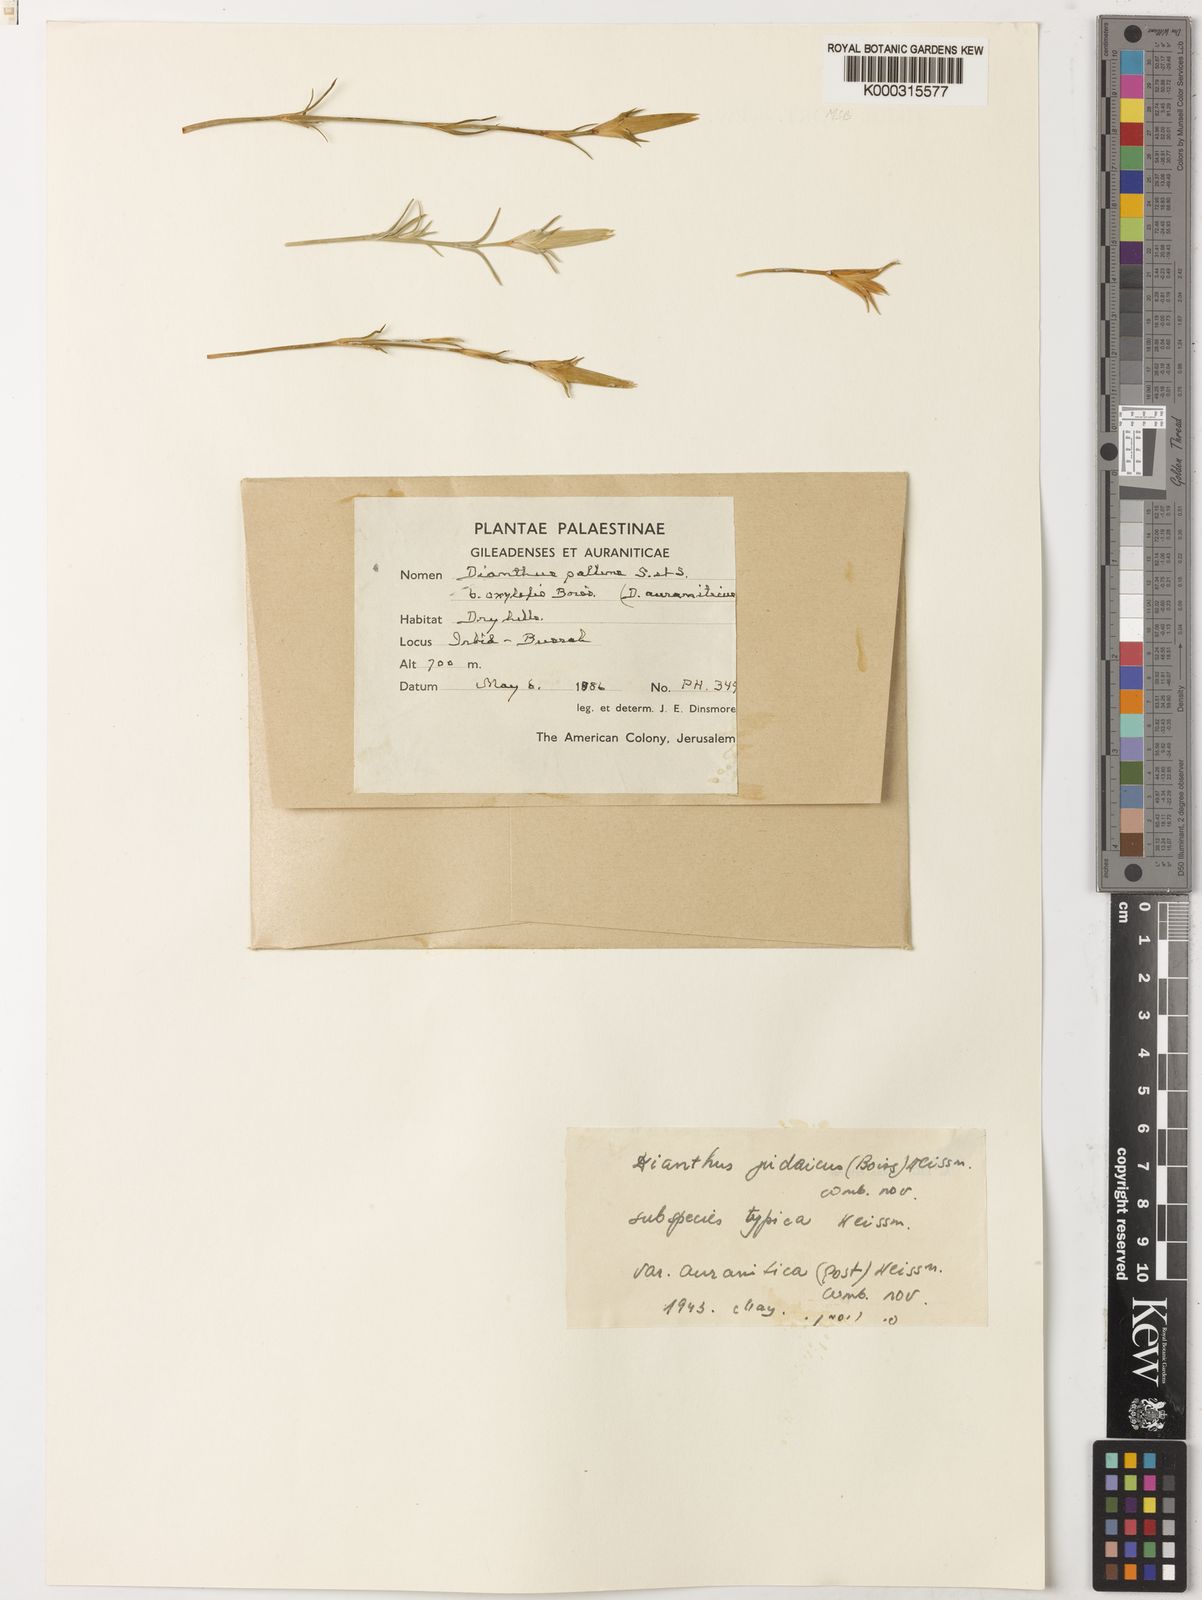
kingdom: Plantae
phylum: Tracheophyta
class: Magnoliopsida
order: Caryophyllales
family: Caryophyllaceae
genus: Dianthus
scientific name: Dianthus monadelphus
